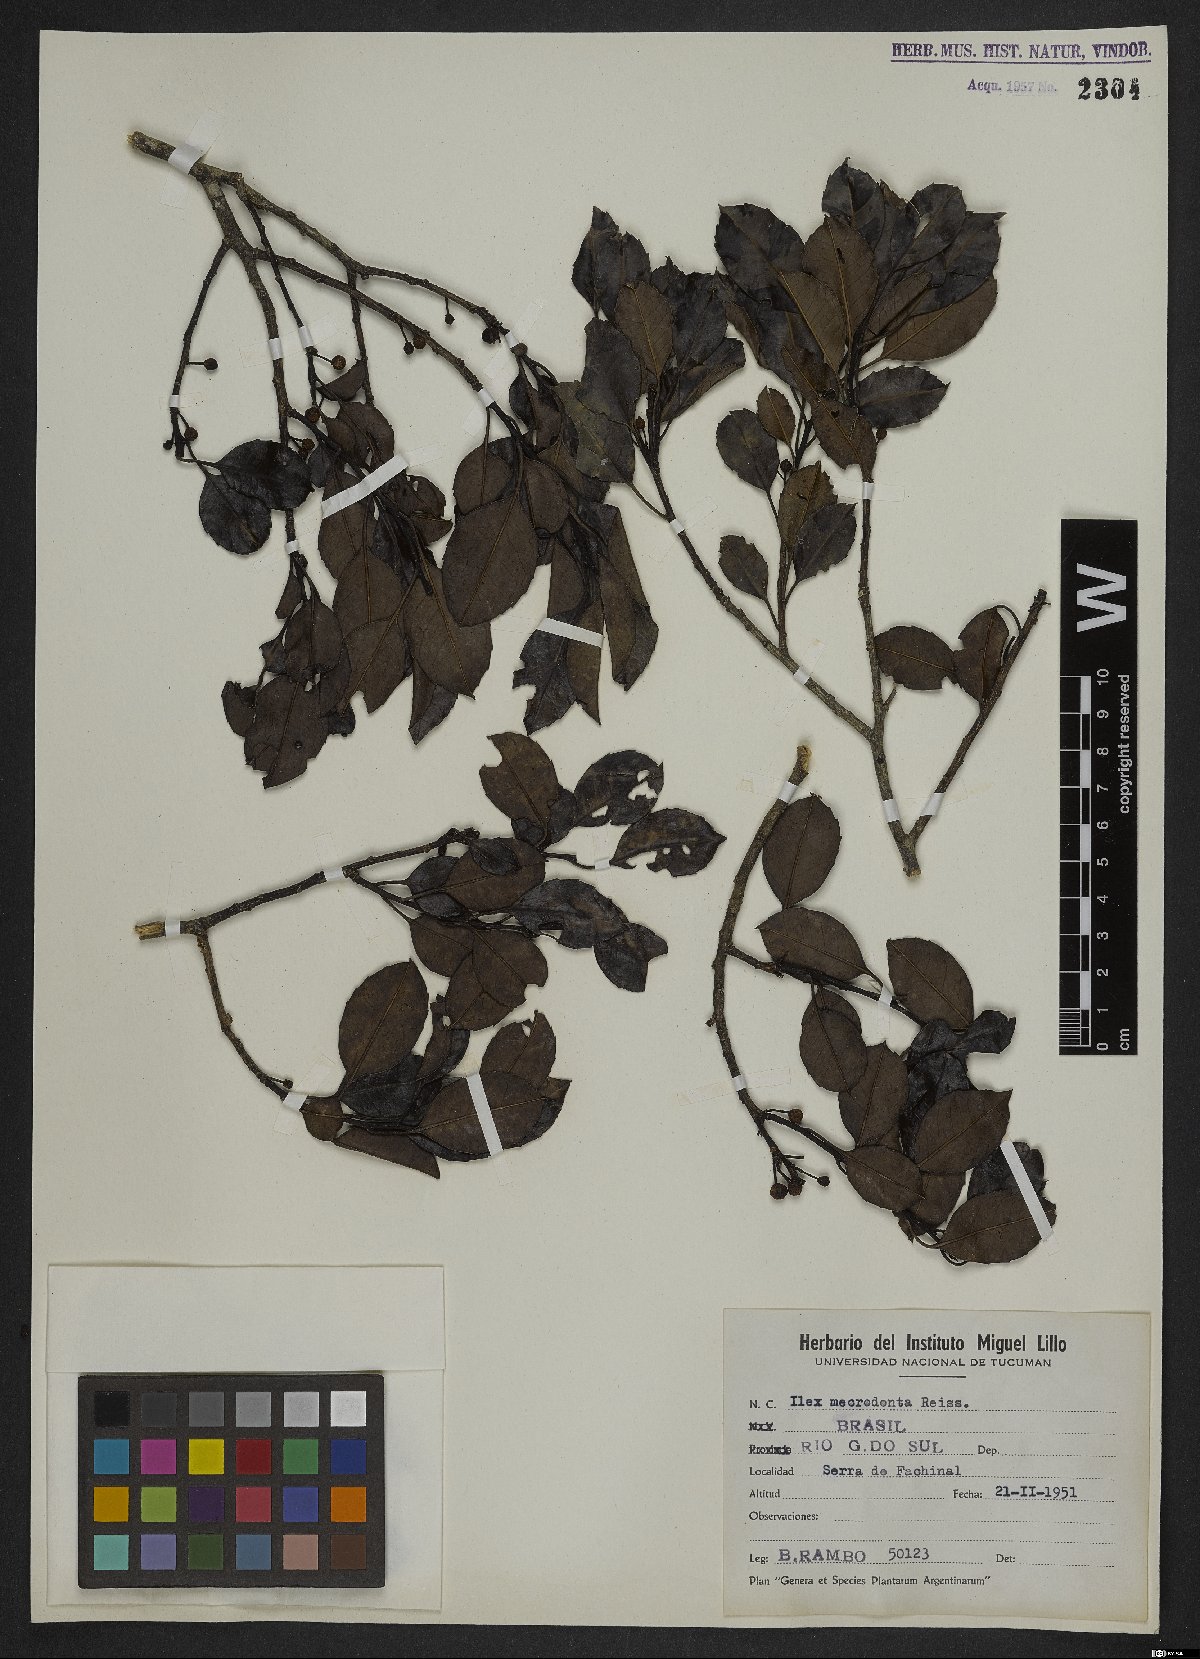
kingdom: Plantae
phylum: Tracheophyta
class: Magnoliopsida
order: Aquifoliales
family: Aquifoliaceae
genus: Ilex
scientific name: Ilex microdonta
